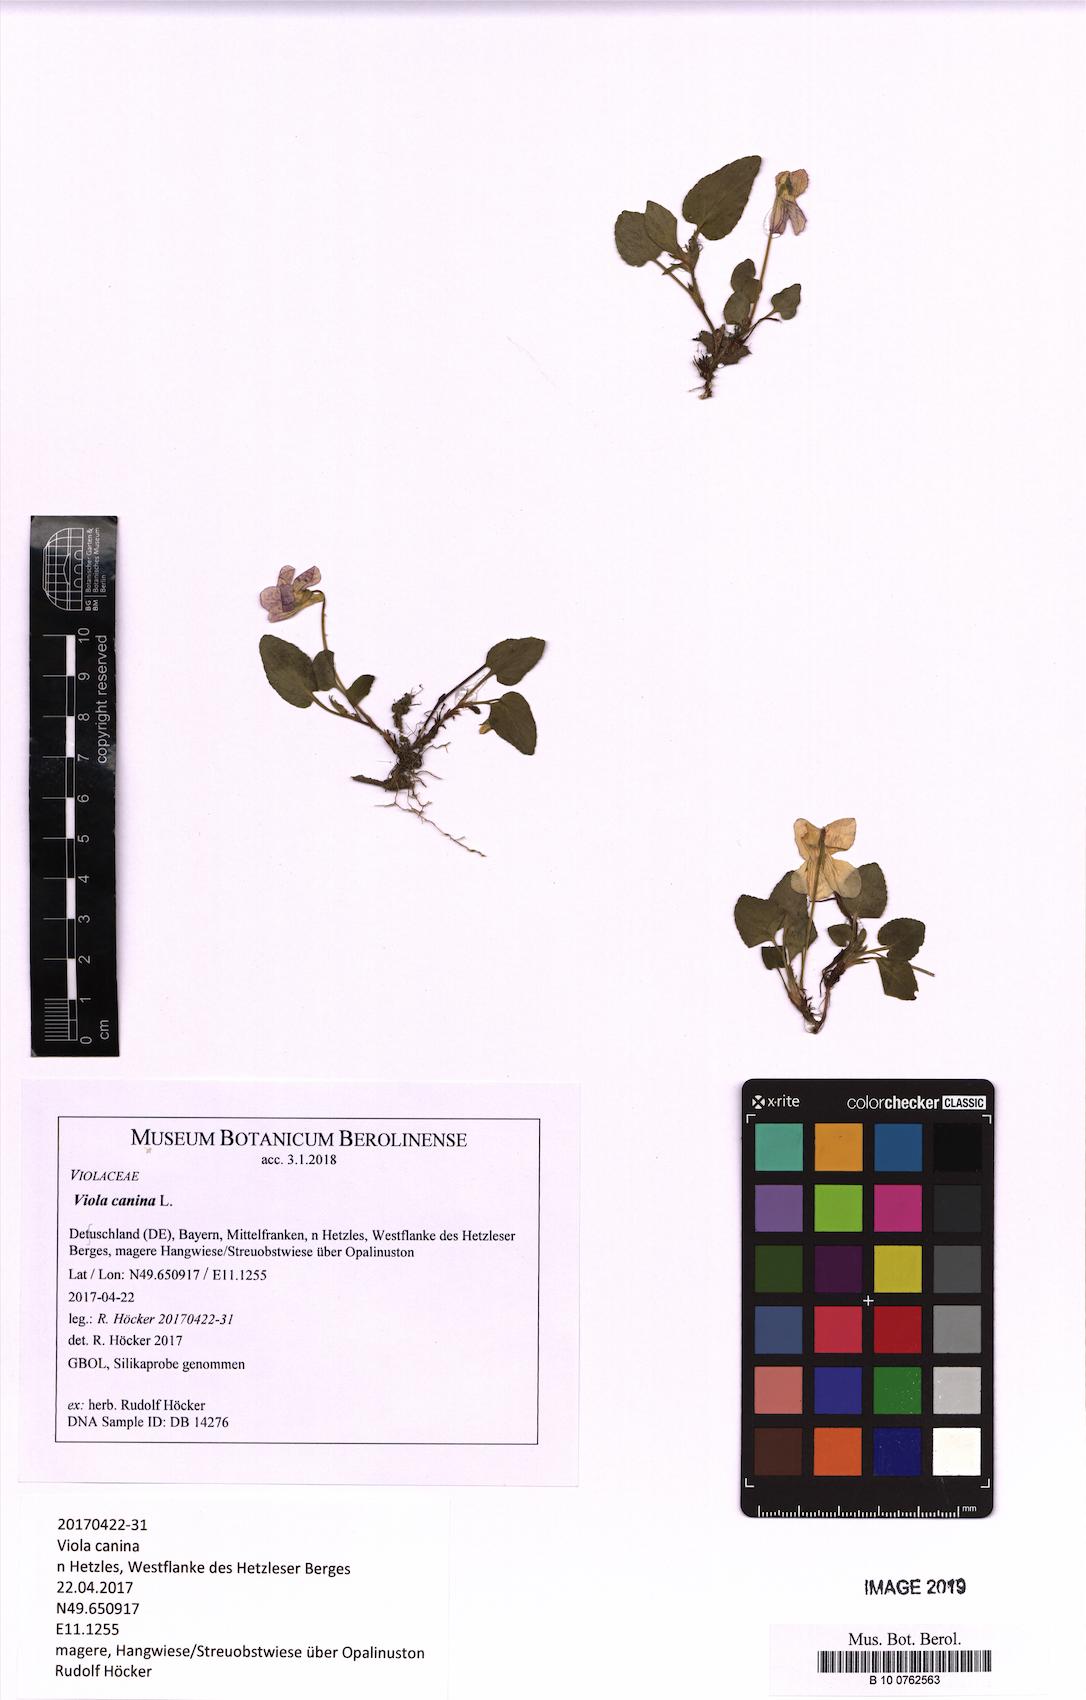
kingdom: Plantae
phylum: Tracheophyta
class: Magnoliopsida
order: Malpighiales
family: Violaceae
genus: Viola
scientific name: Viola canina
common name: Heath dog-violet
